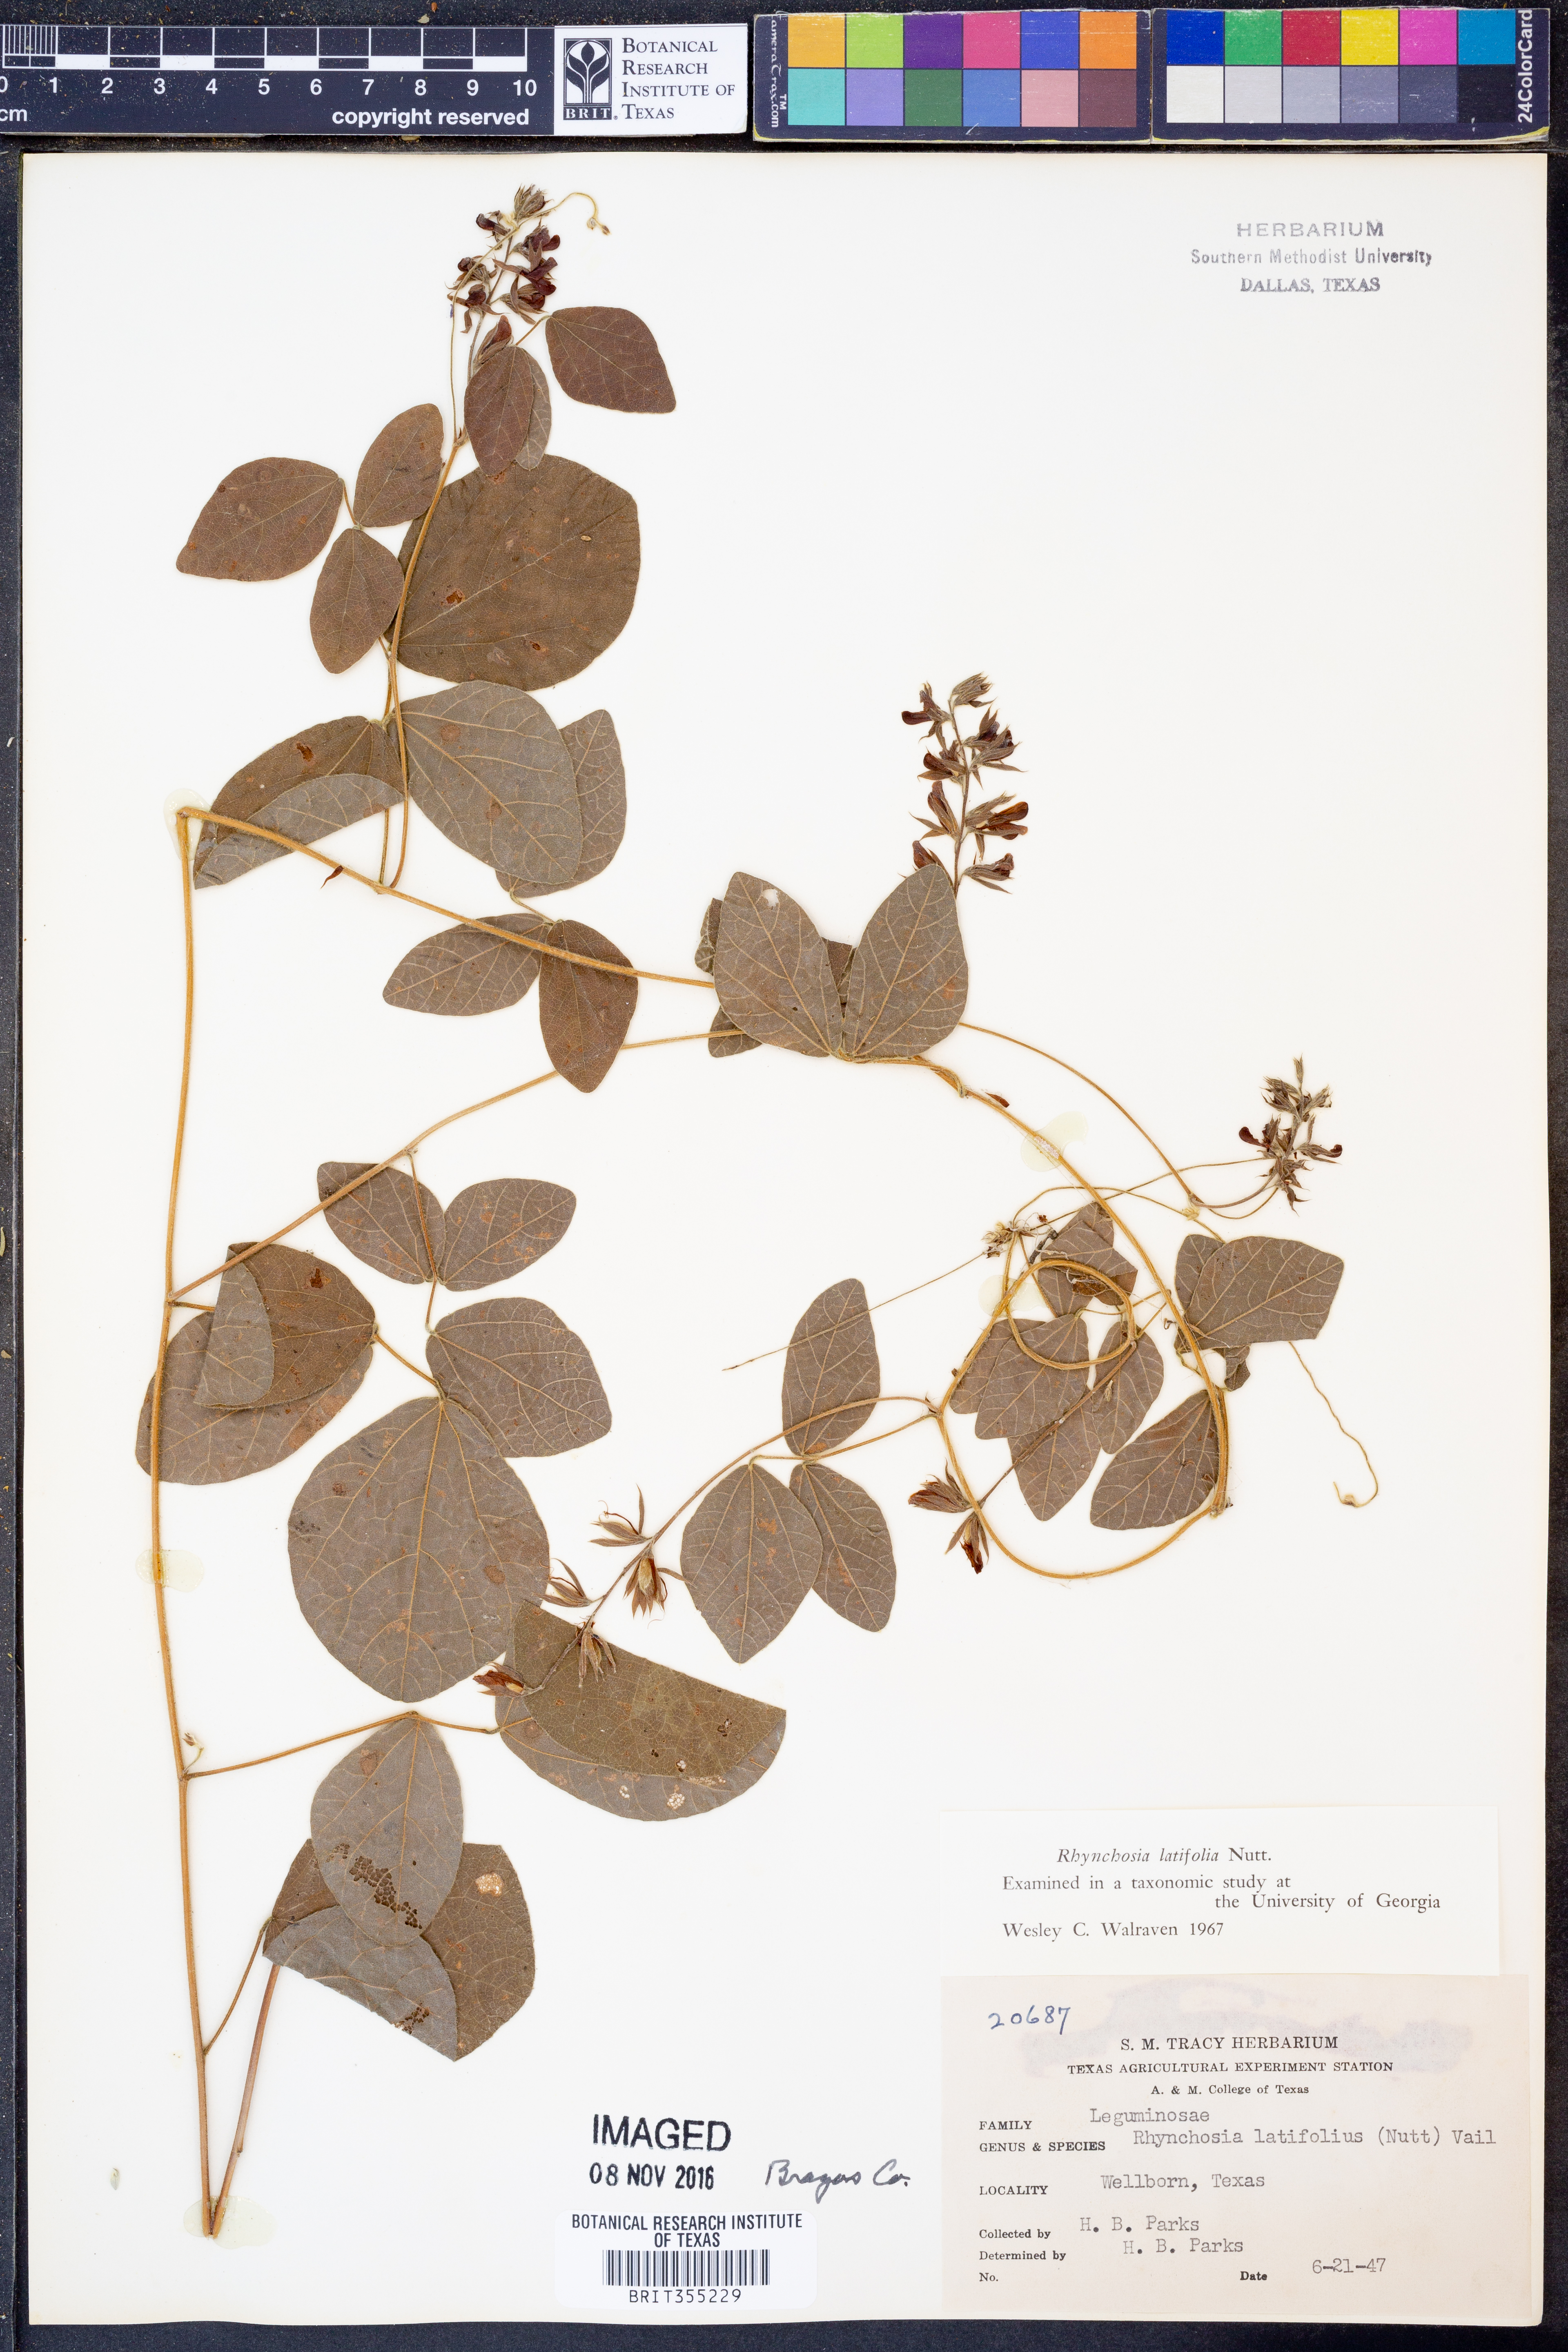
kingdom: Plantae
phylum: Tracheophyta
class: Magnoliopsida
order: Fabales
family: Fabaceae
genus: Rhynchosia
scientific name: Rhynchosia latifolia
